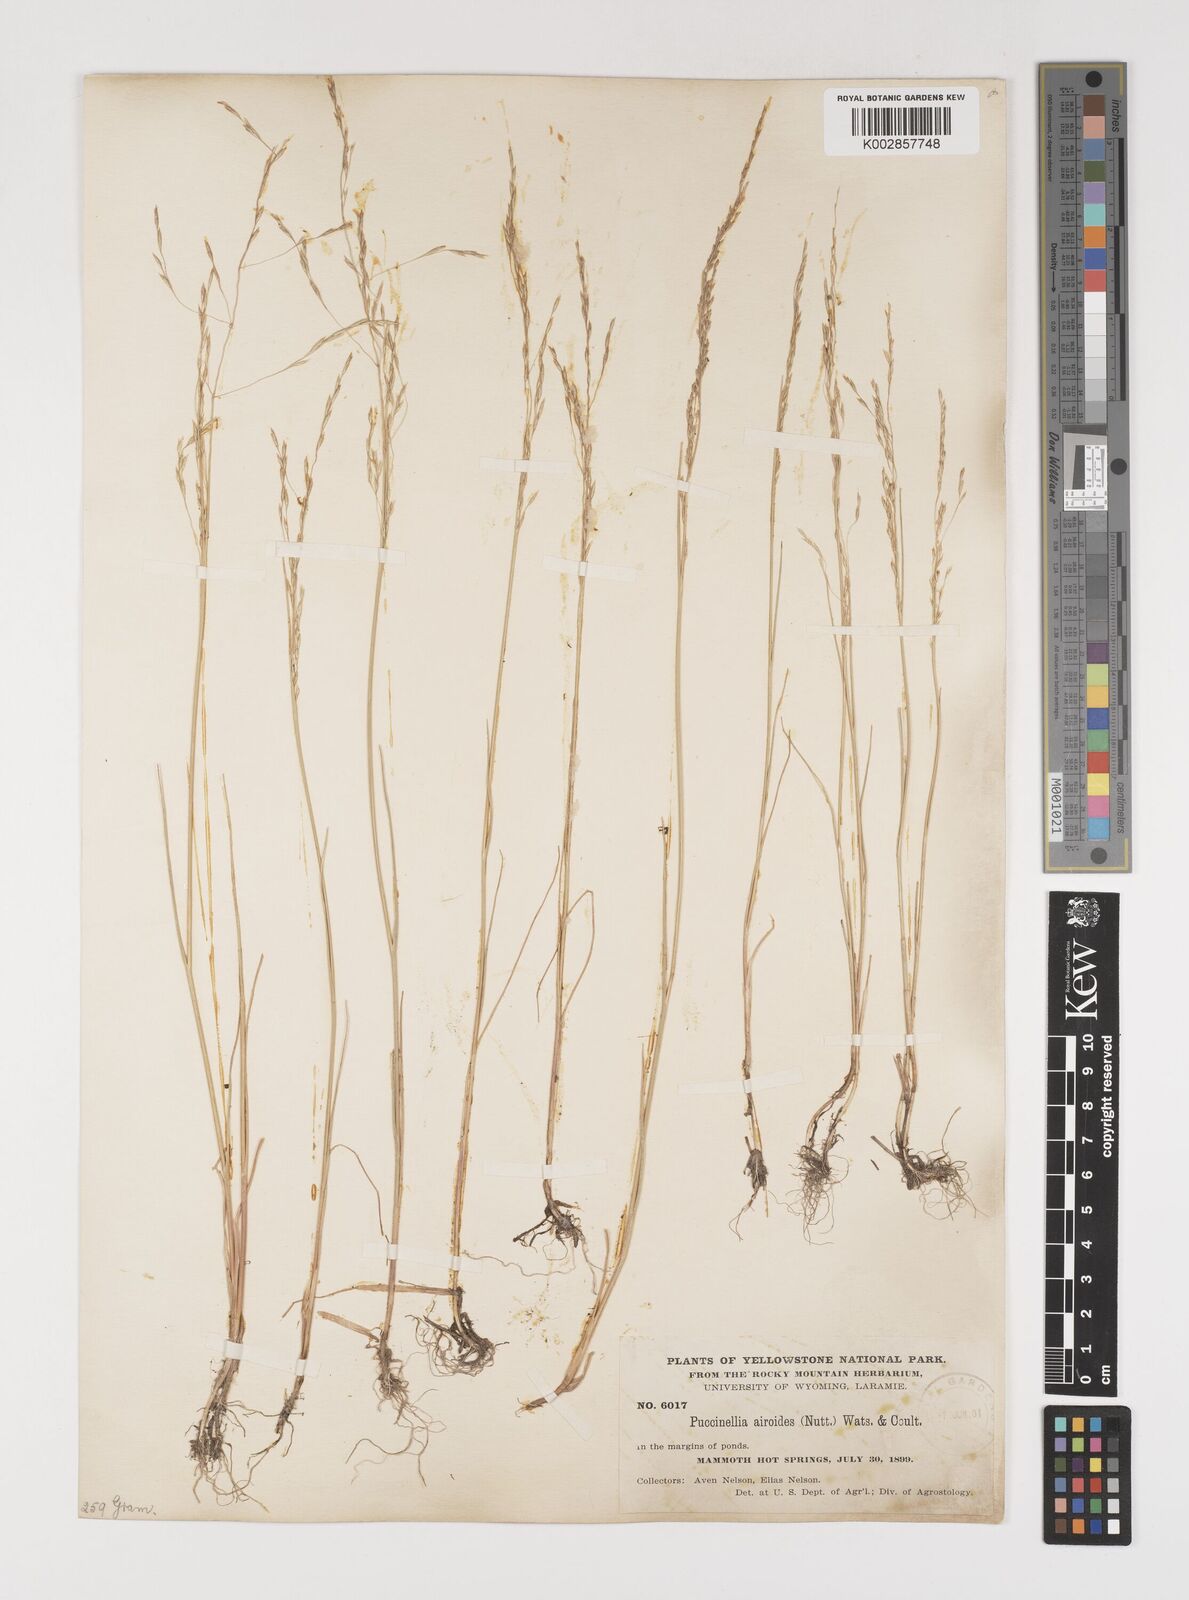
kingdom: Plantae
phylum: Tracheophyta
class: Liliopsida
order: Poales
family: Poaceae
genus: Puccinellia
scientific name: Puccinellia nuttalliana
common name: Nuttall's alkali grass
